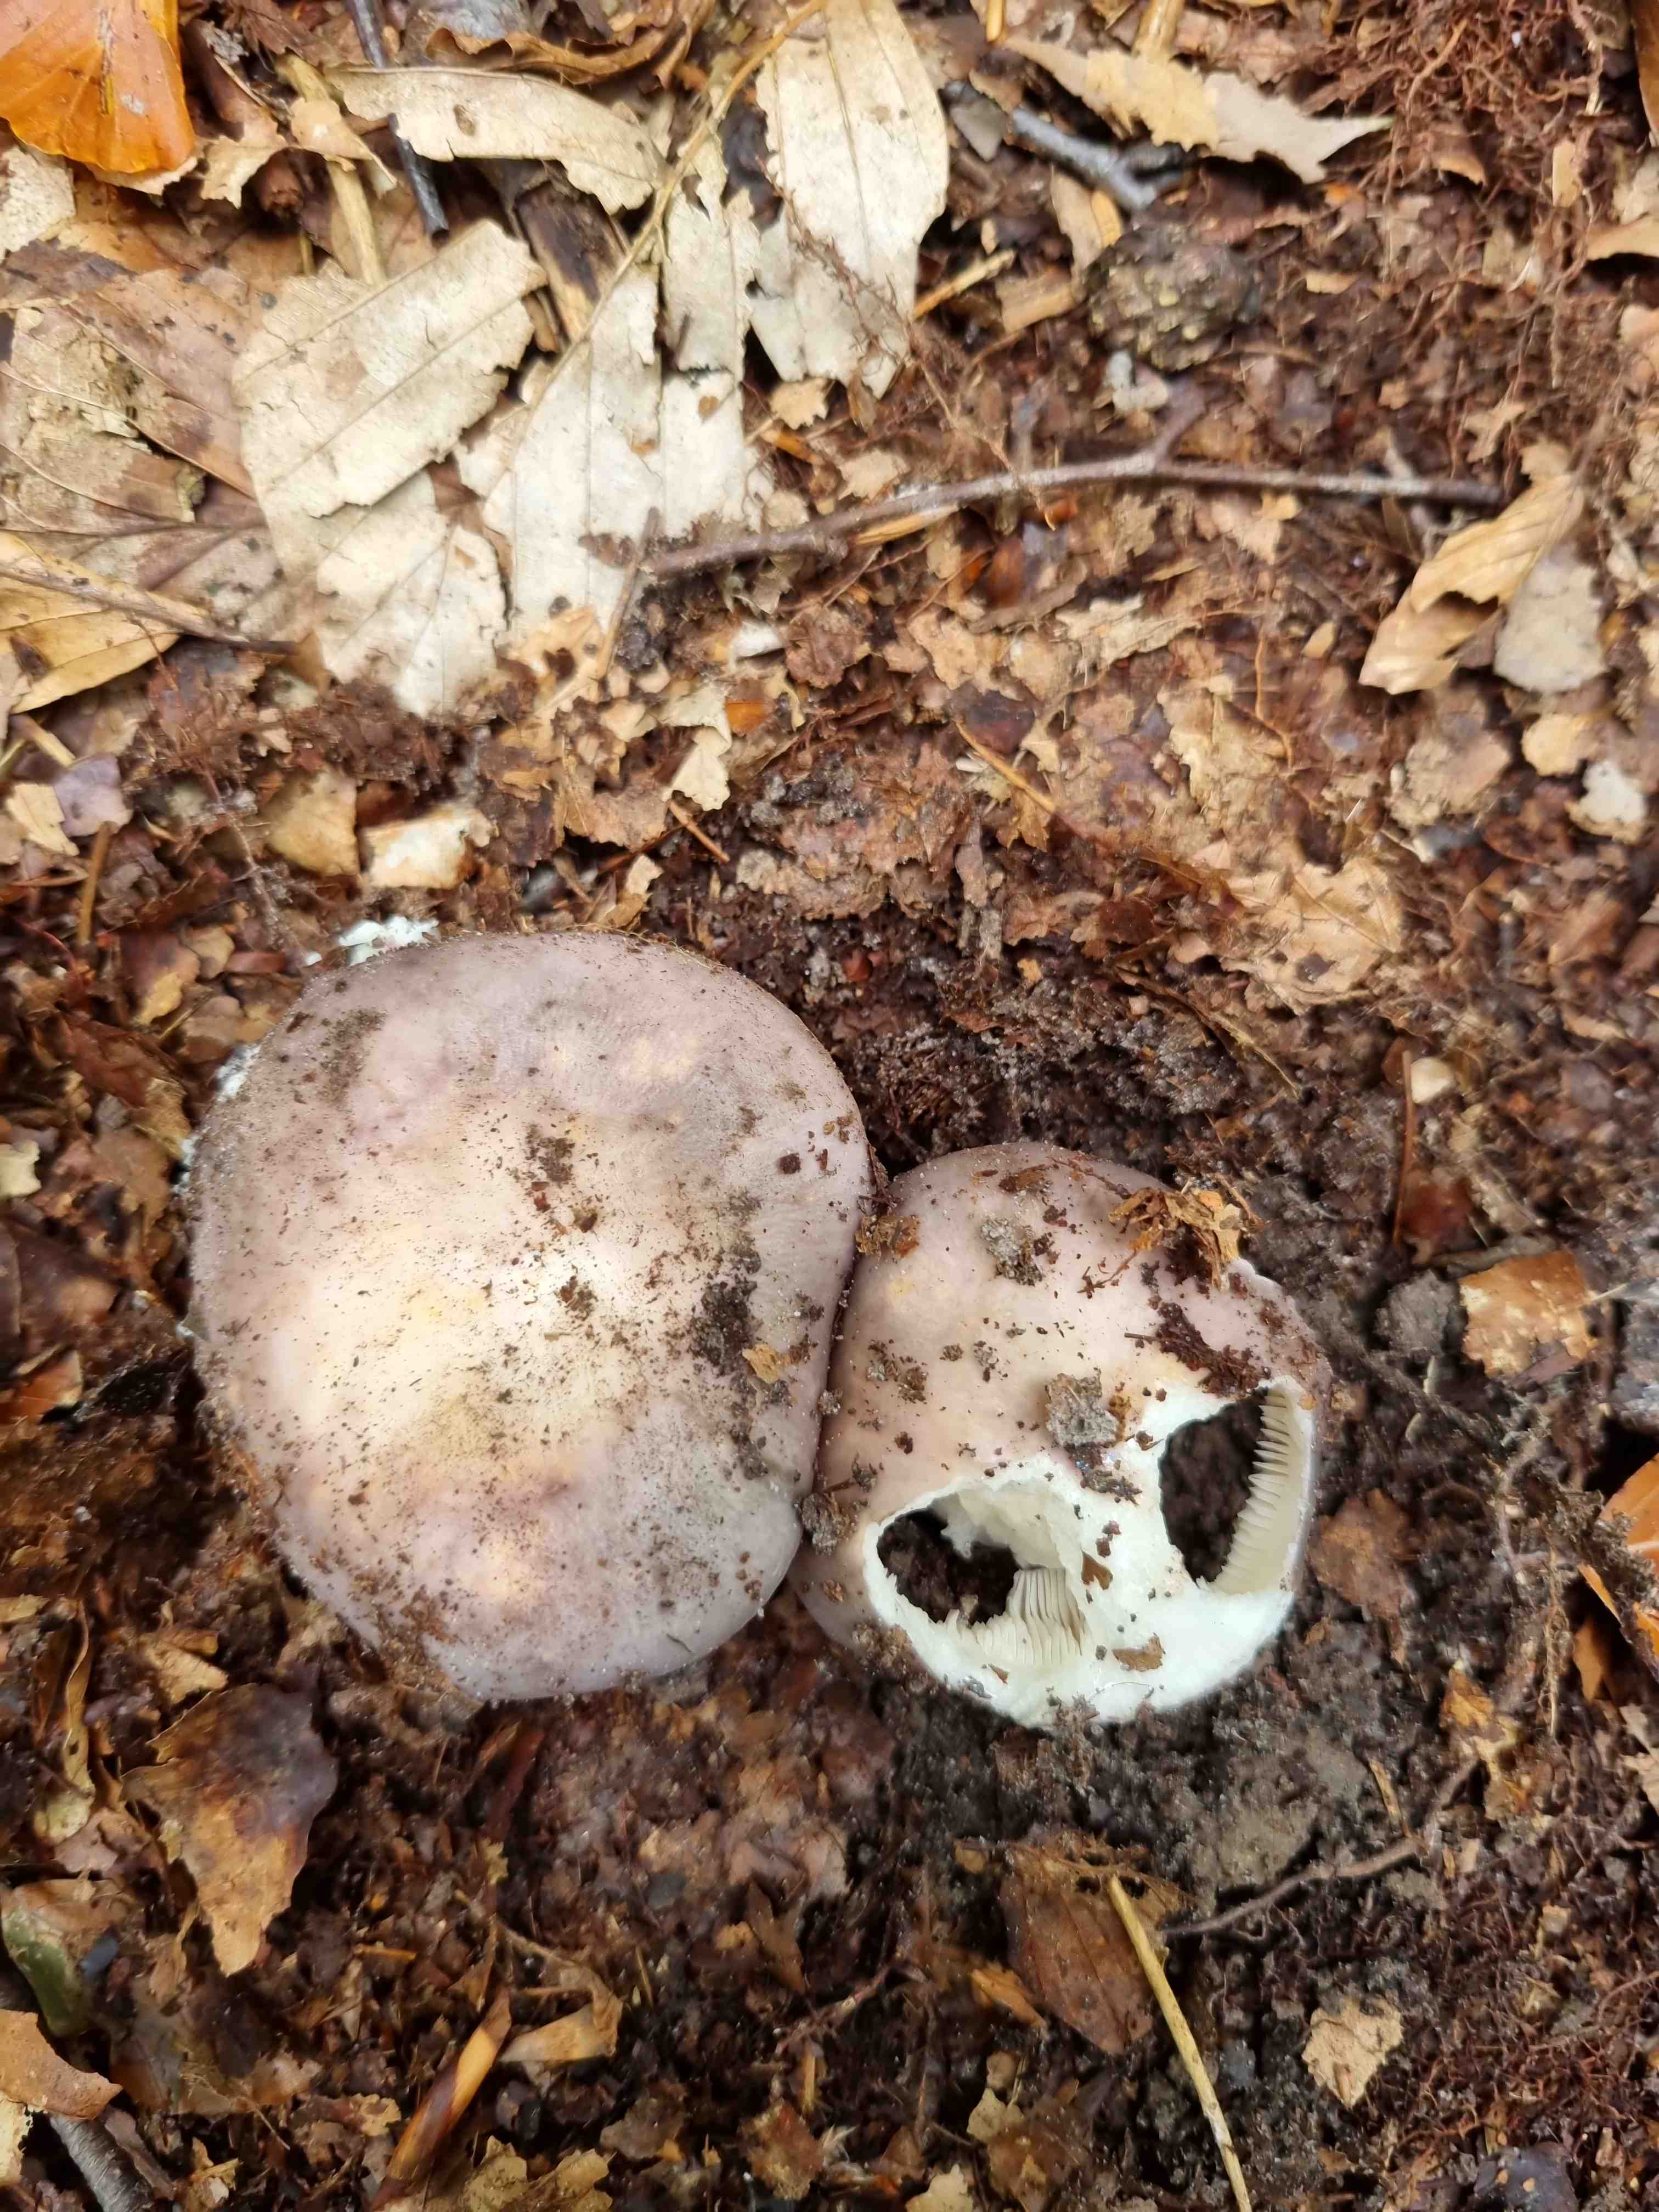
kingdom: Fungi
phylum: Basidiomycota
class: Agaricomycetes
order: Russulales
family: Russulaceae
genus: Russula
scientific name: Russula
